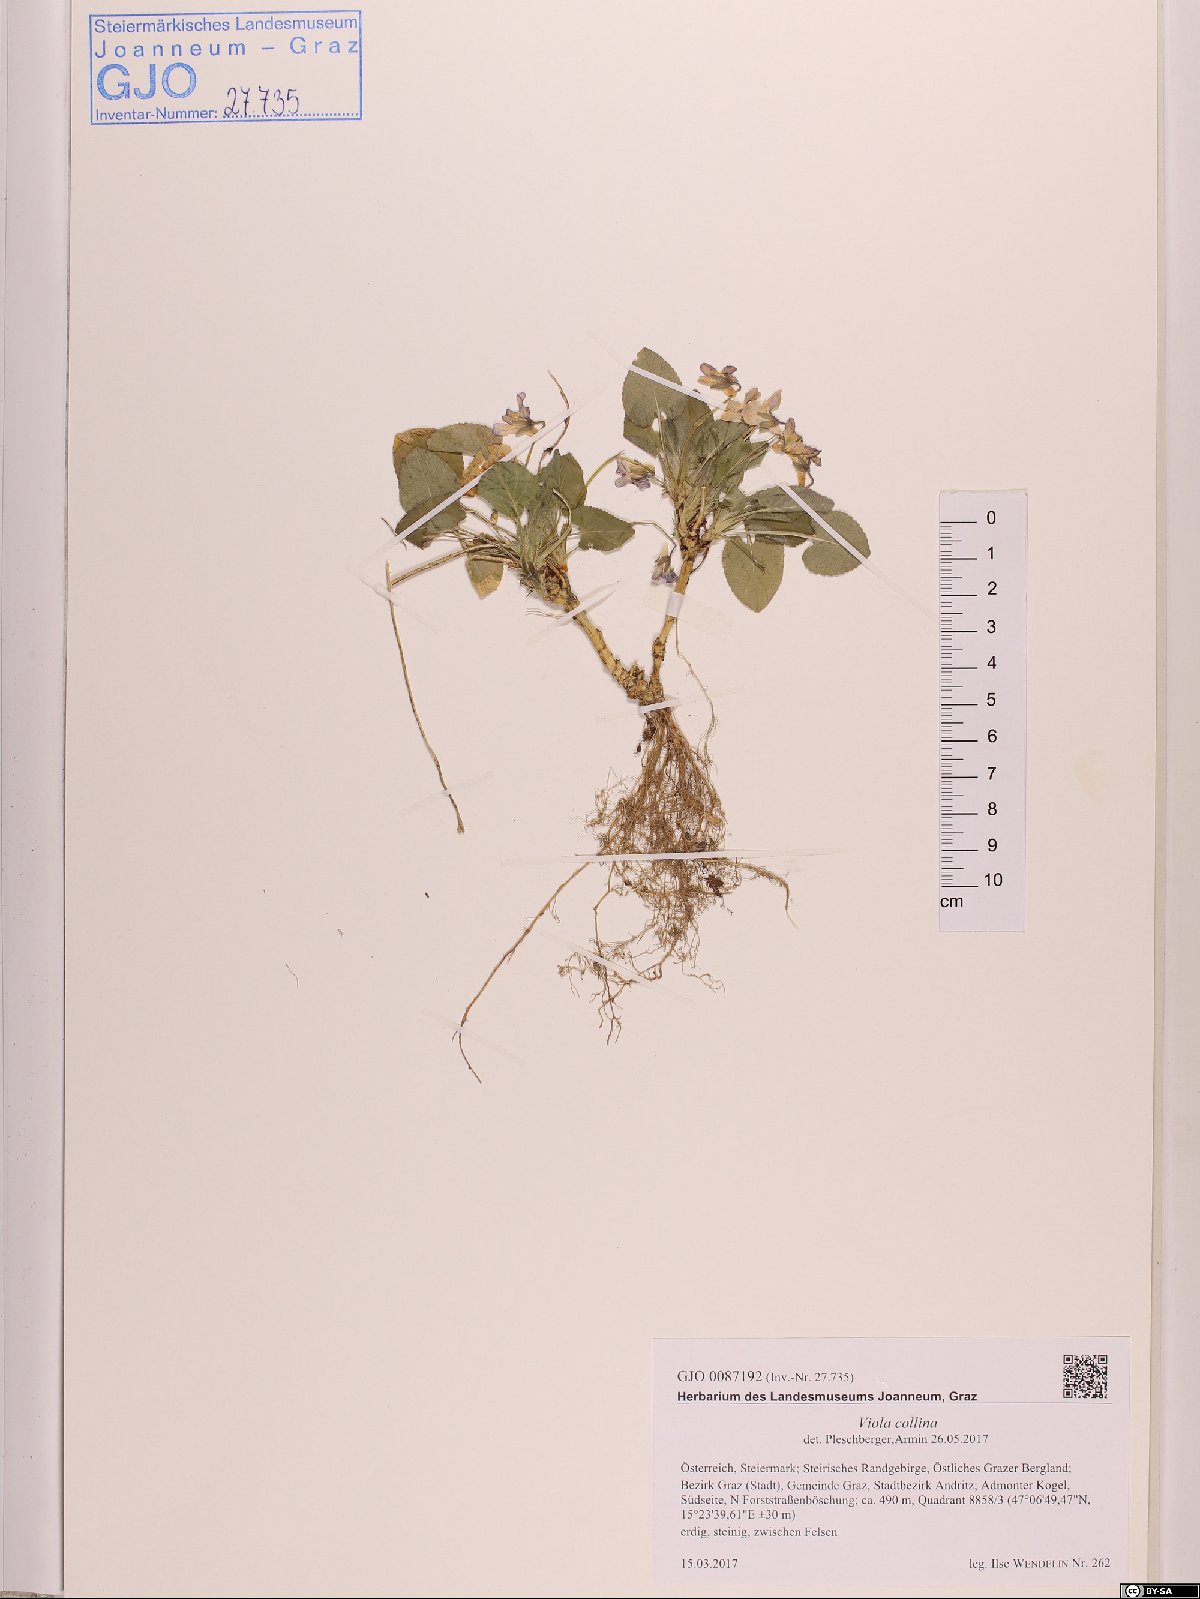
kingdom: Plantae
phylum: Tracheophyta
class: Magnoliopsida
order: Malpighiales
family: Violaceae
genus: Viola
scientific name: Viola collina
